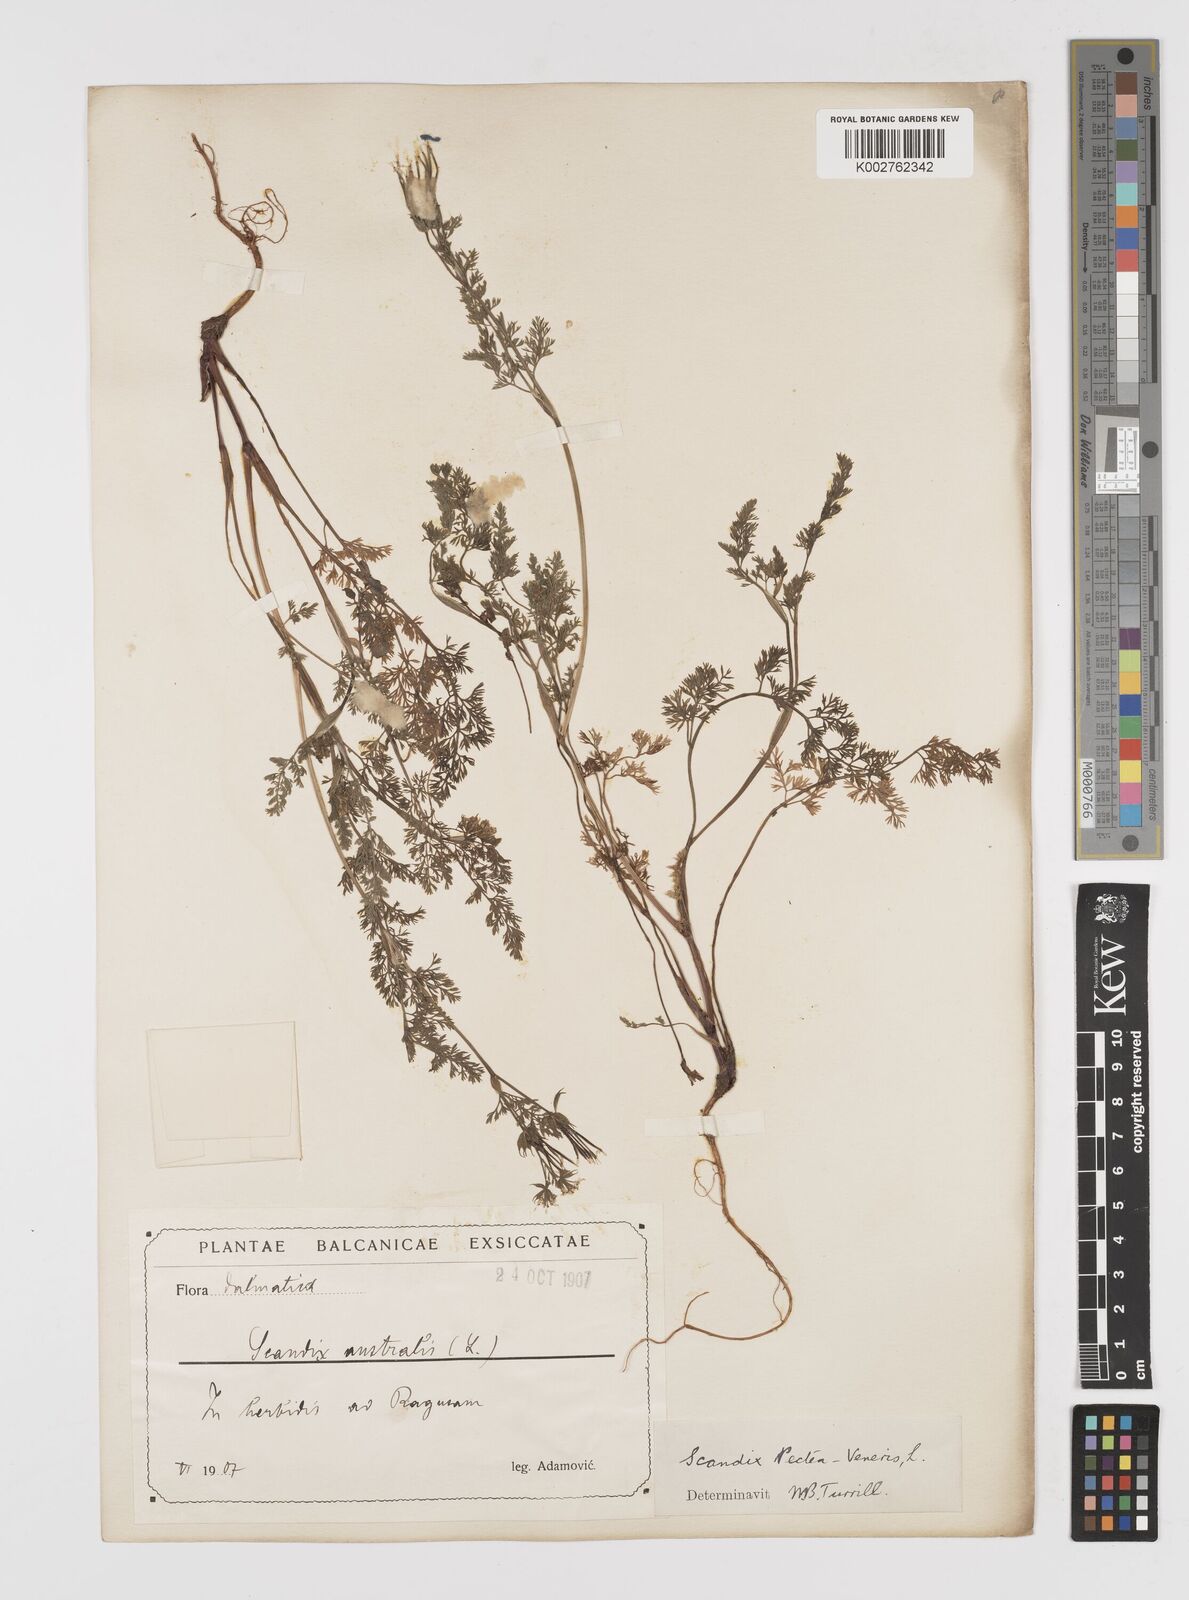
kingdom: Plantae
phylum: Tracheophyta
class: Magnoliopsida
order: Apiales
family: Apiaceae
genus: Scandix
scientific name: Scandix pecten-veneris
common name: Shepherd's-needle
